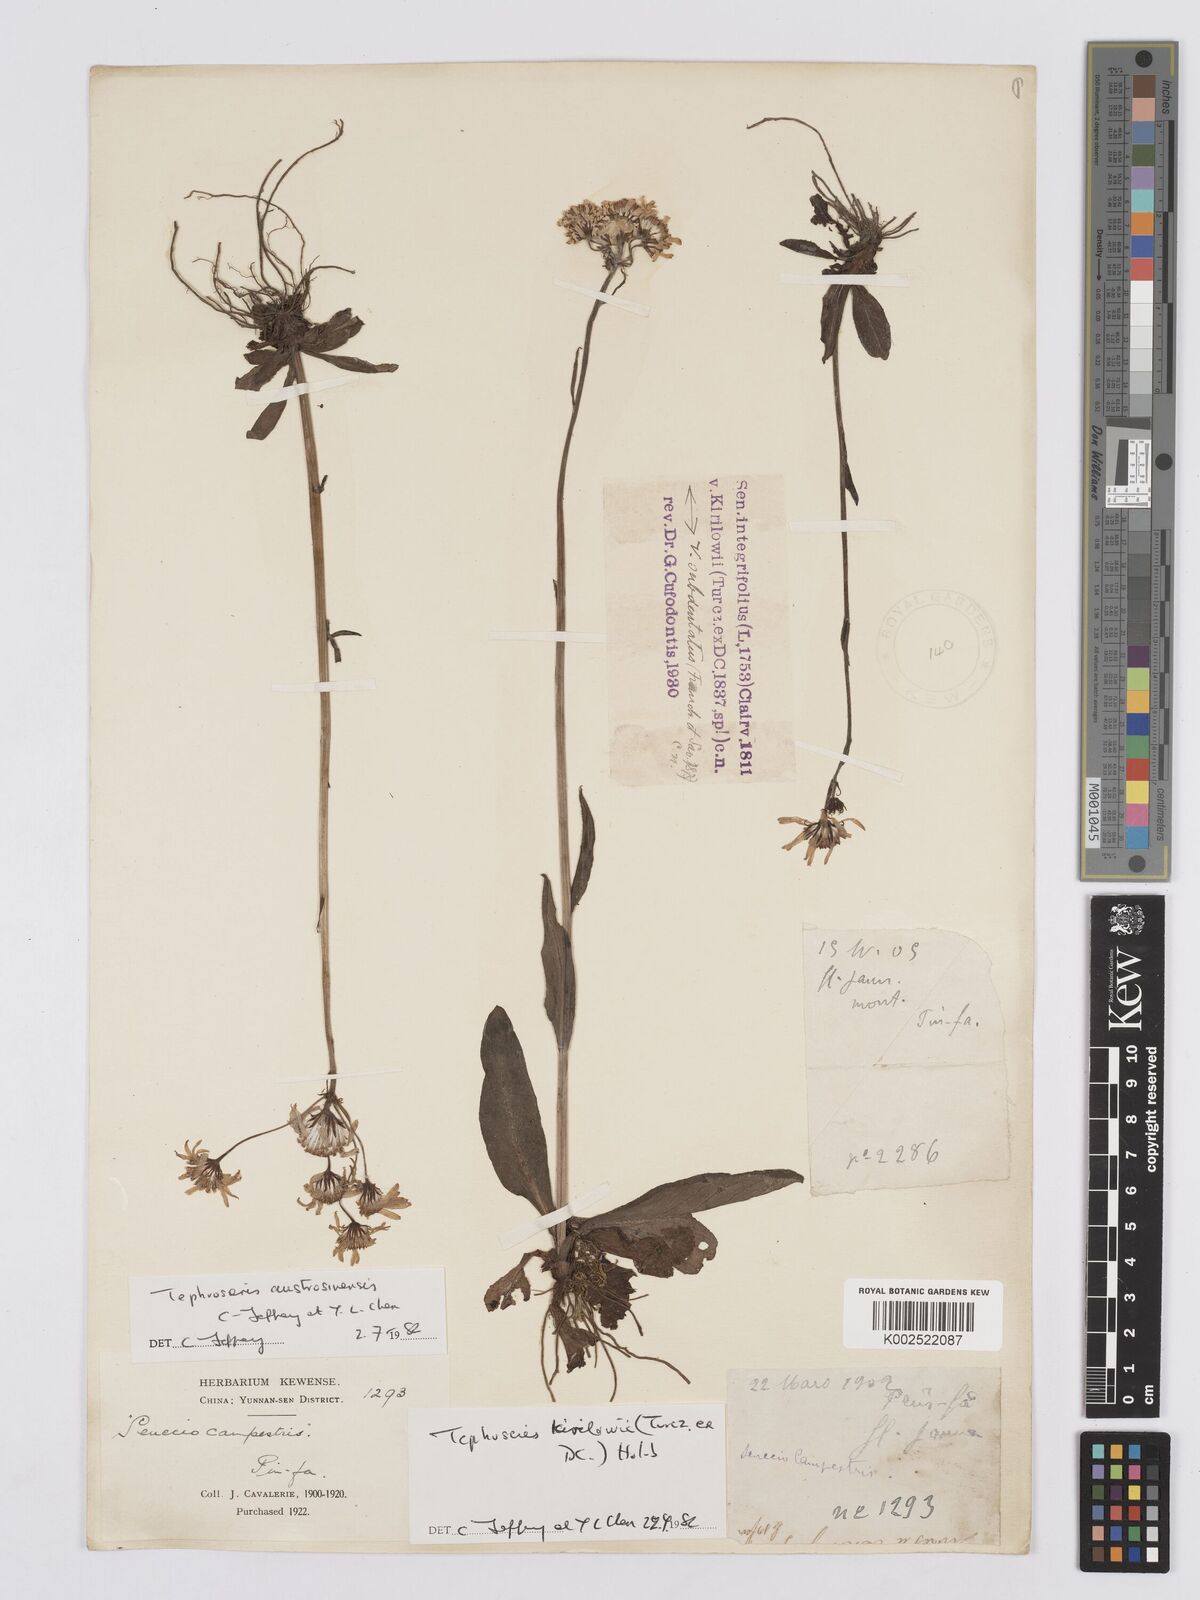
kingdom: Plantae
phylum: Tracheophyta
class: Magnoliopsida
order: Asterales
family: Asteraceae
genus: Tephroseris
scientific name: Tephroseris kirilowii
